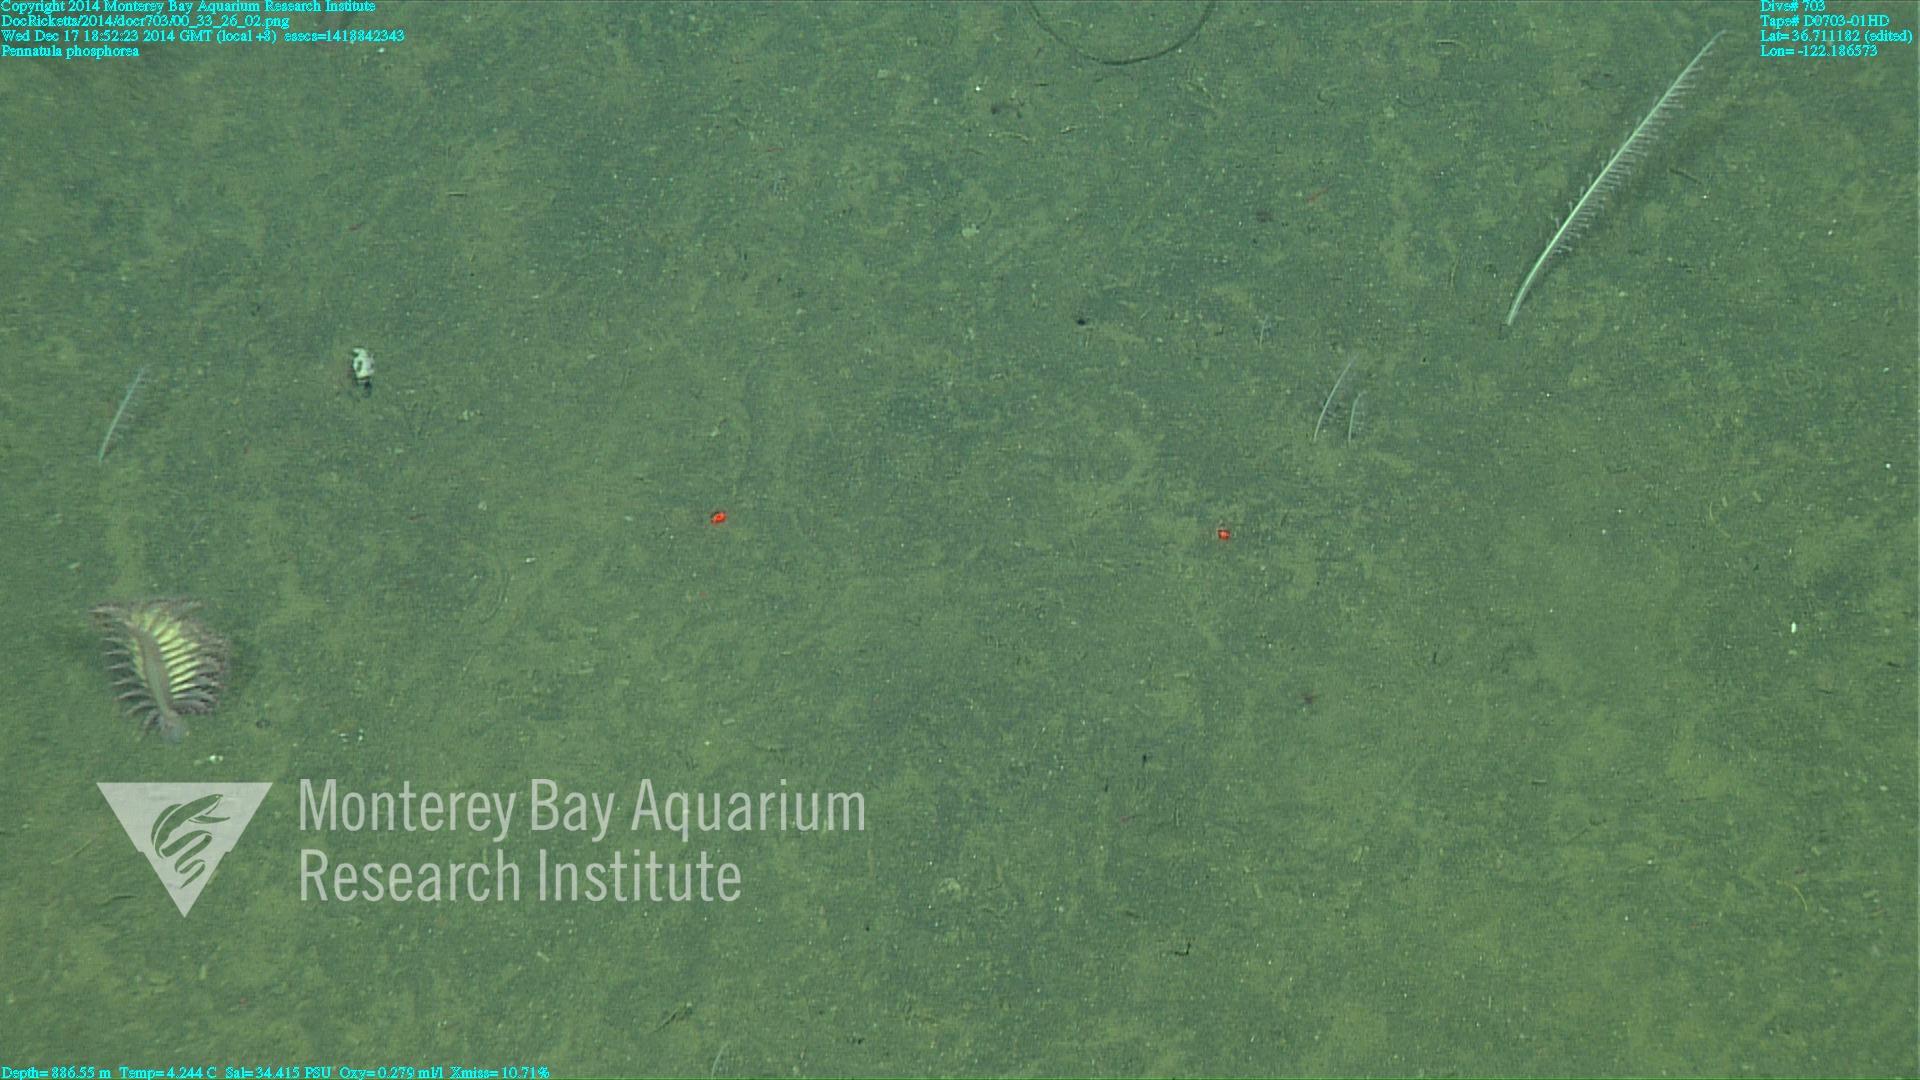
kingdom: Animalia
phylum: Cnidaria
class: Anthozoa
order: Scleralcyonacea
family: Pennatulidae
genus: Pennatula
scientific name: Pennatula phosphorea
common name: Phosphorescent sea pen
